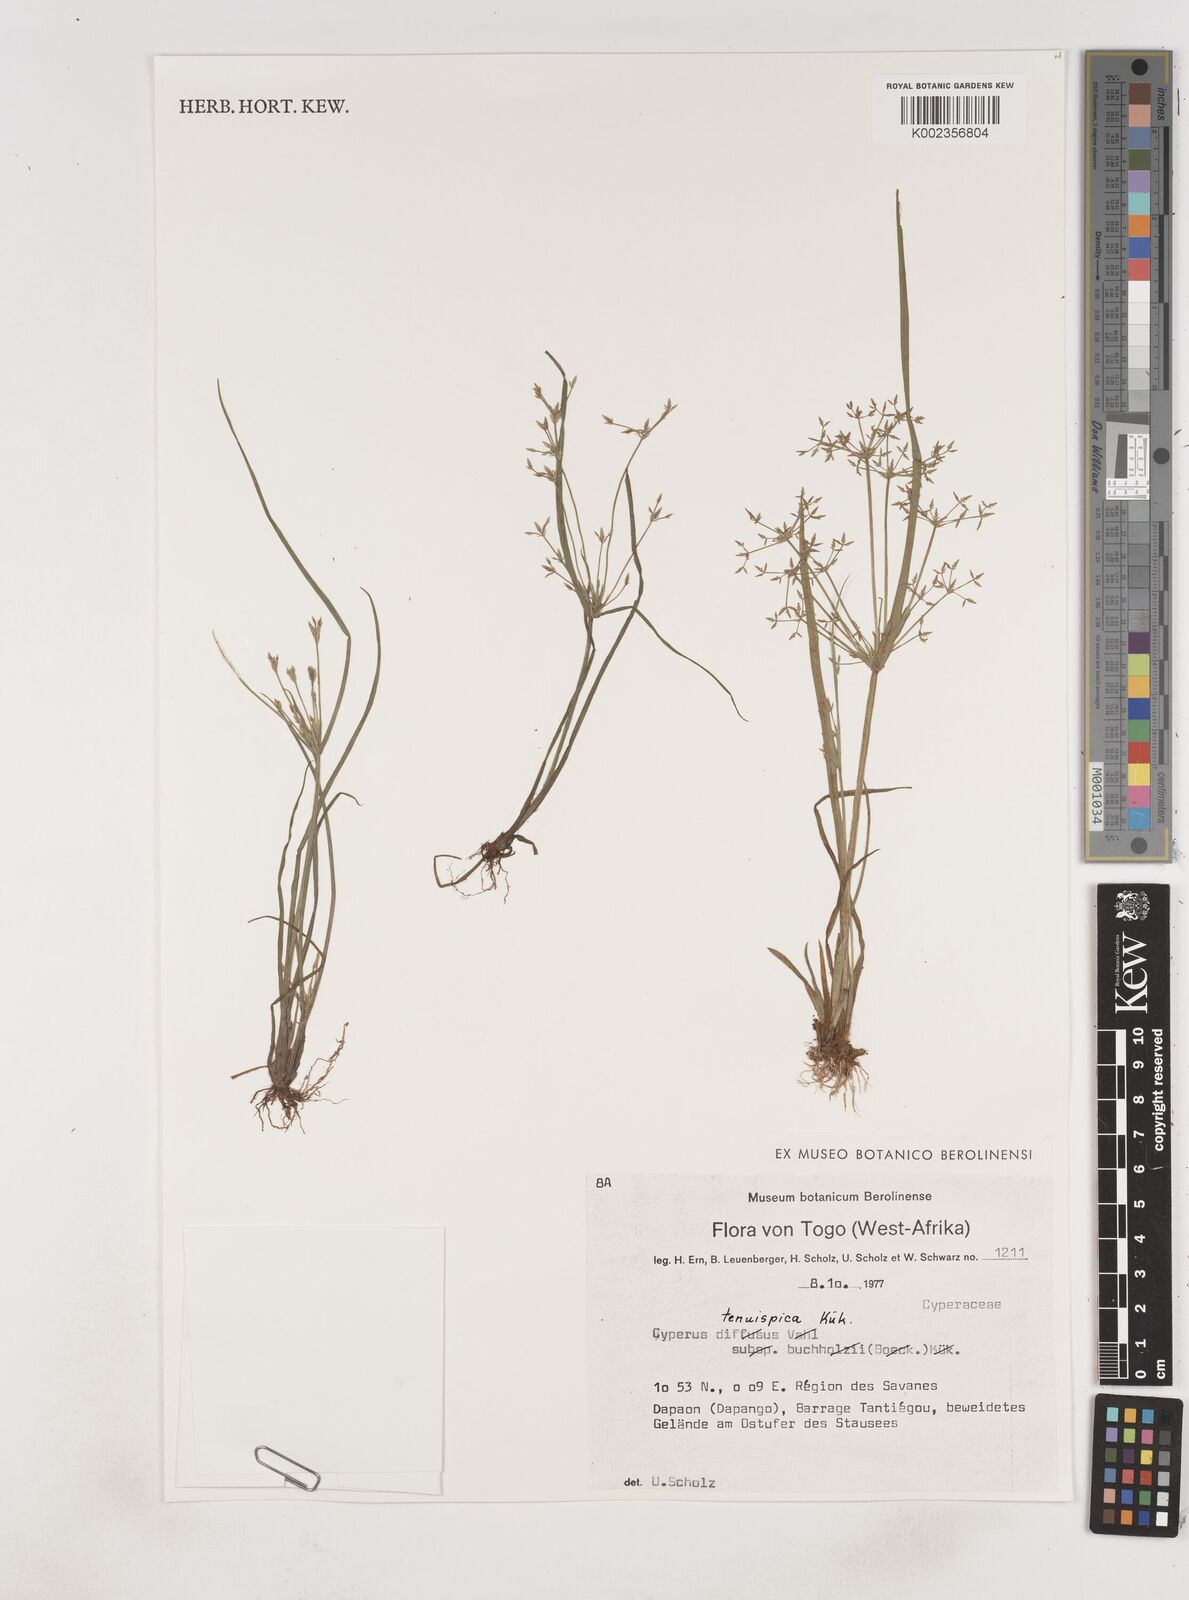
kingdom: Plantae
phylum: Tracheophyta
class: Liliopsida
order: Poales
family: Cyperaceae
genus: Cyperus
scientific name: Cyperus tenuispica
